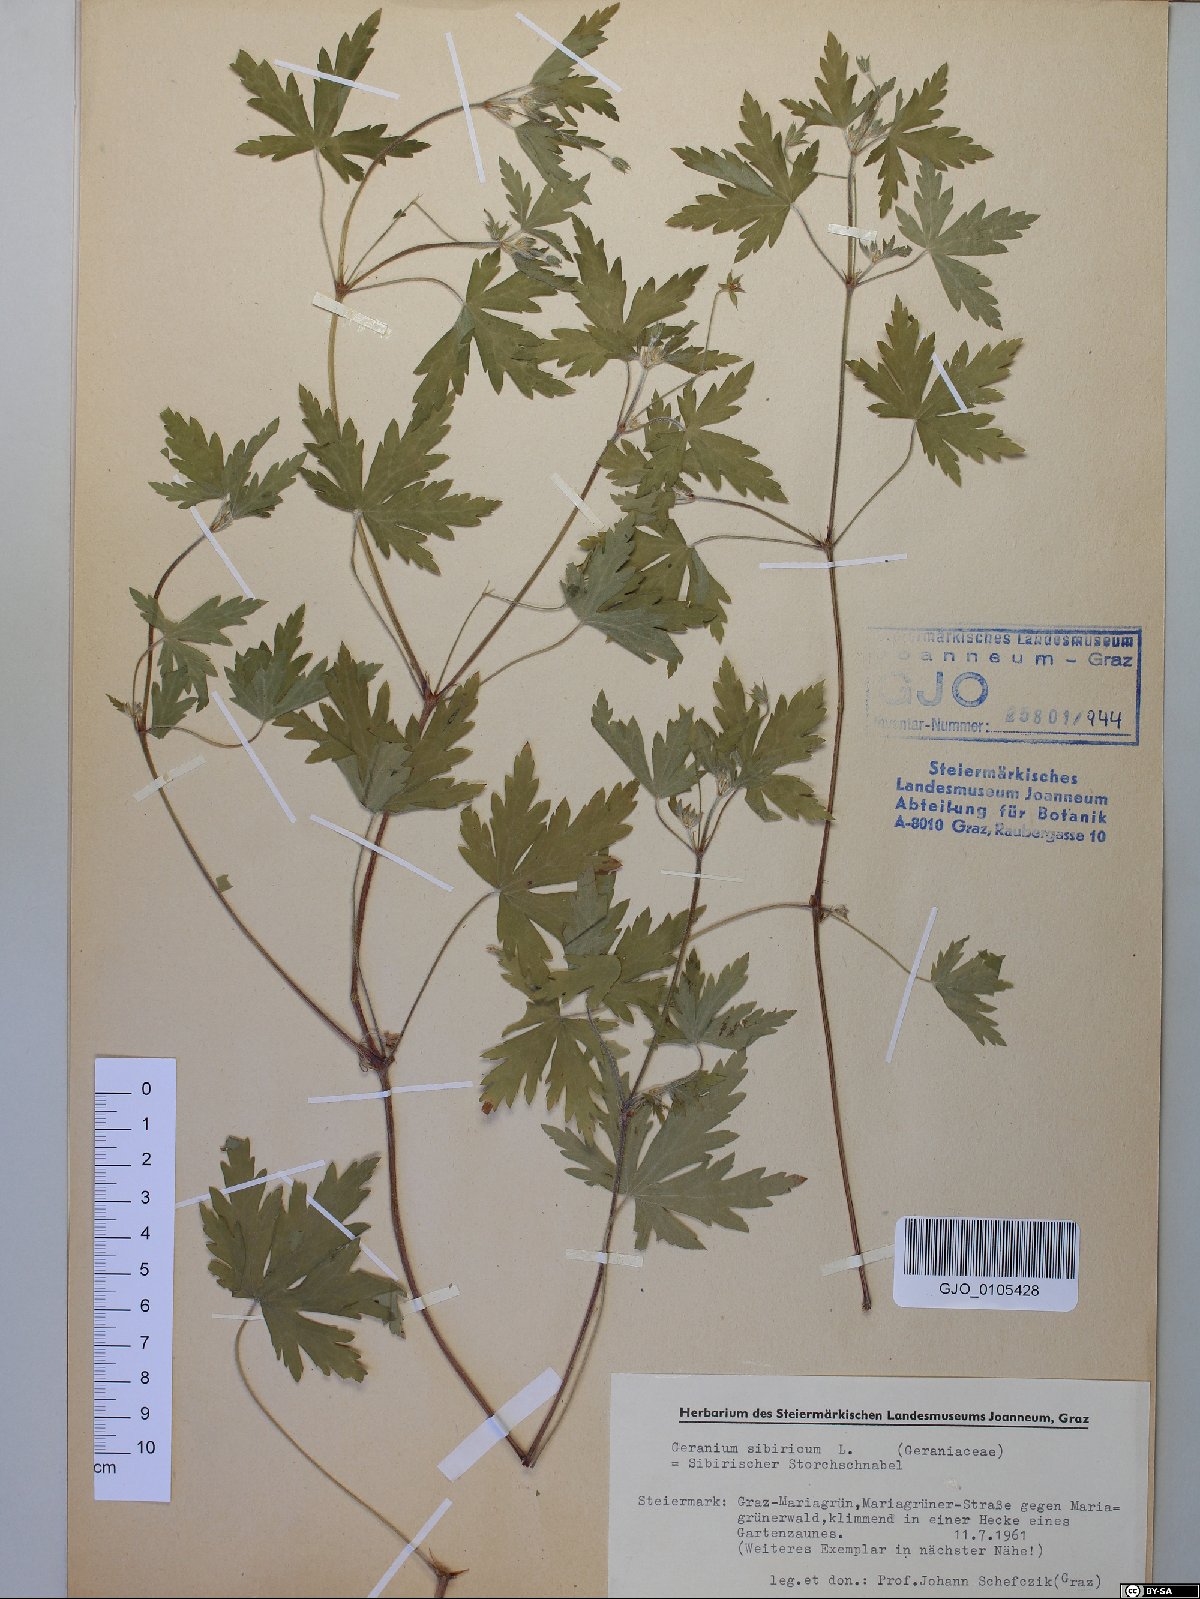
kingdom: Plantae
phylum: Tracheophyta
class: Magnoliopsida
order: Geraniales
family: Geraniaceae
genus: Geranium
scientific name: Geranium sibiricum
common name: Siberian crane's-bill
